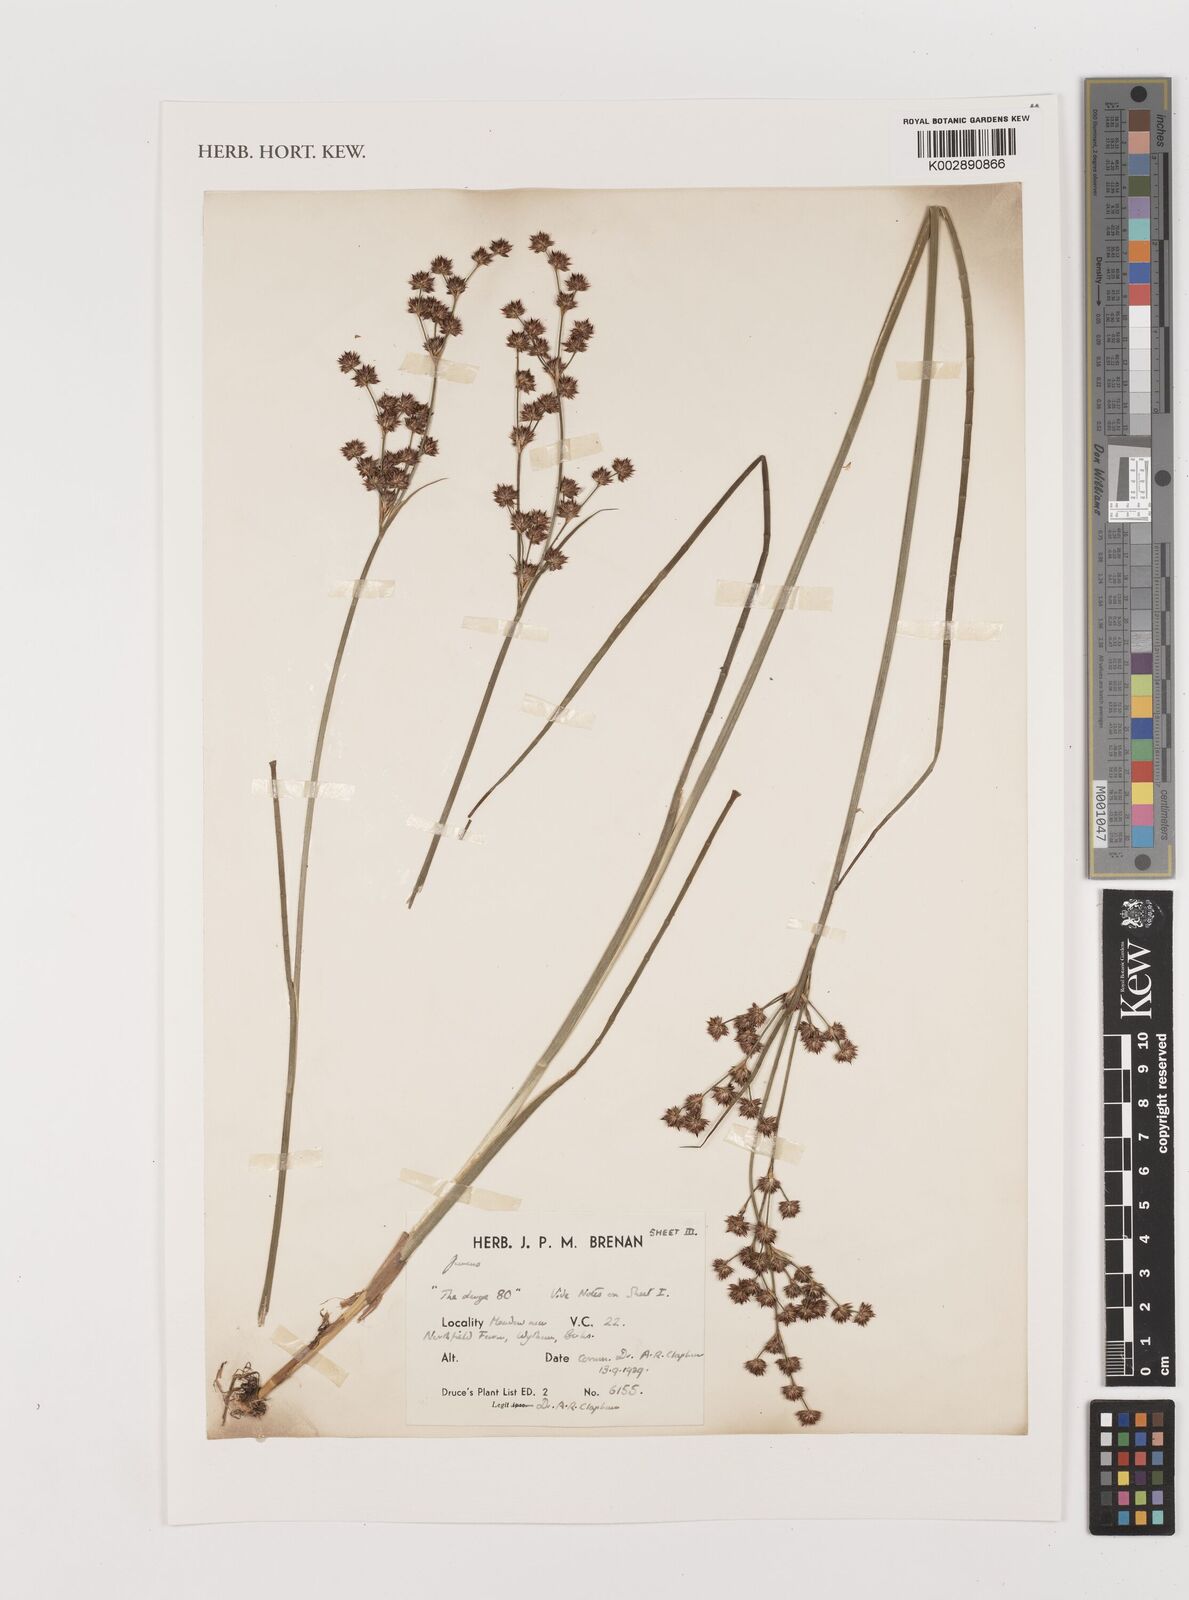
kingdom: Plantae
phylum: Tracheophyta
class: Liliopsida
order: Poales
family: Juncaceae
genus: Juncus
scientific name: Juncus
